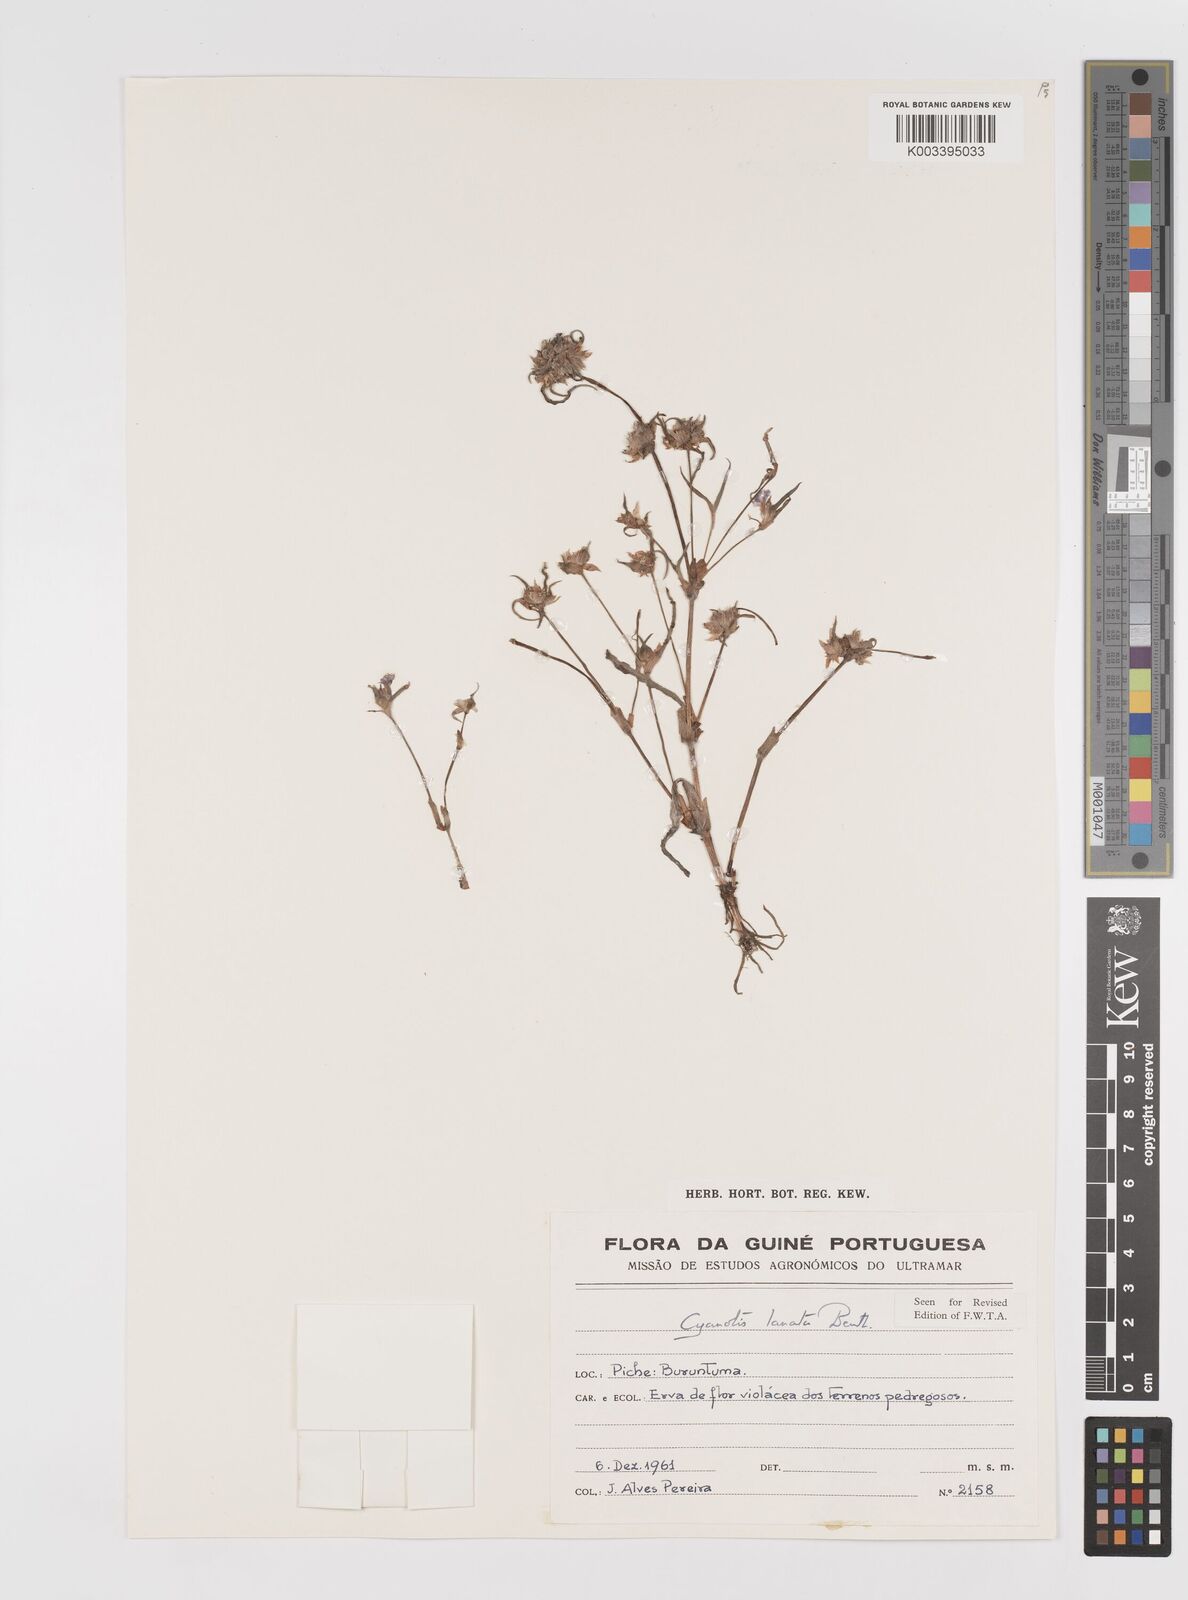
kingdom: Plantae
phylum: Tracheophyta
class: Liliopsida
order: Commelinales
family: Commelinaceae
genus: Cyanotis
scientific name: Cyanotis lanata
